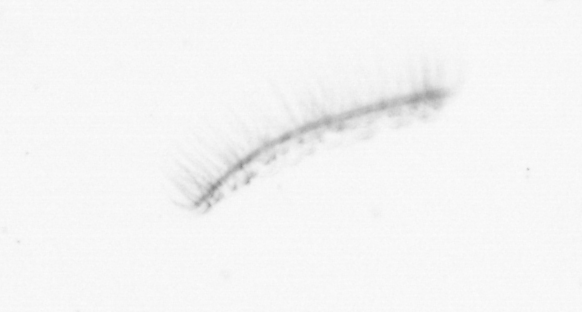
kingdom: Chromista
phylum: Ochrophyta
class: Bacillariophyceae
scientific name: Bacillariophyceae
